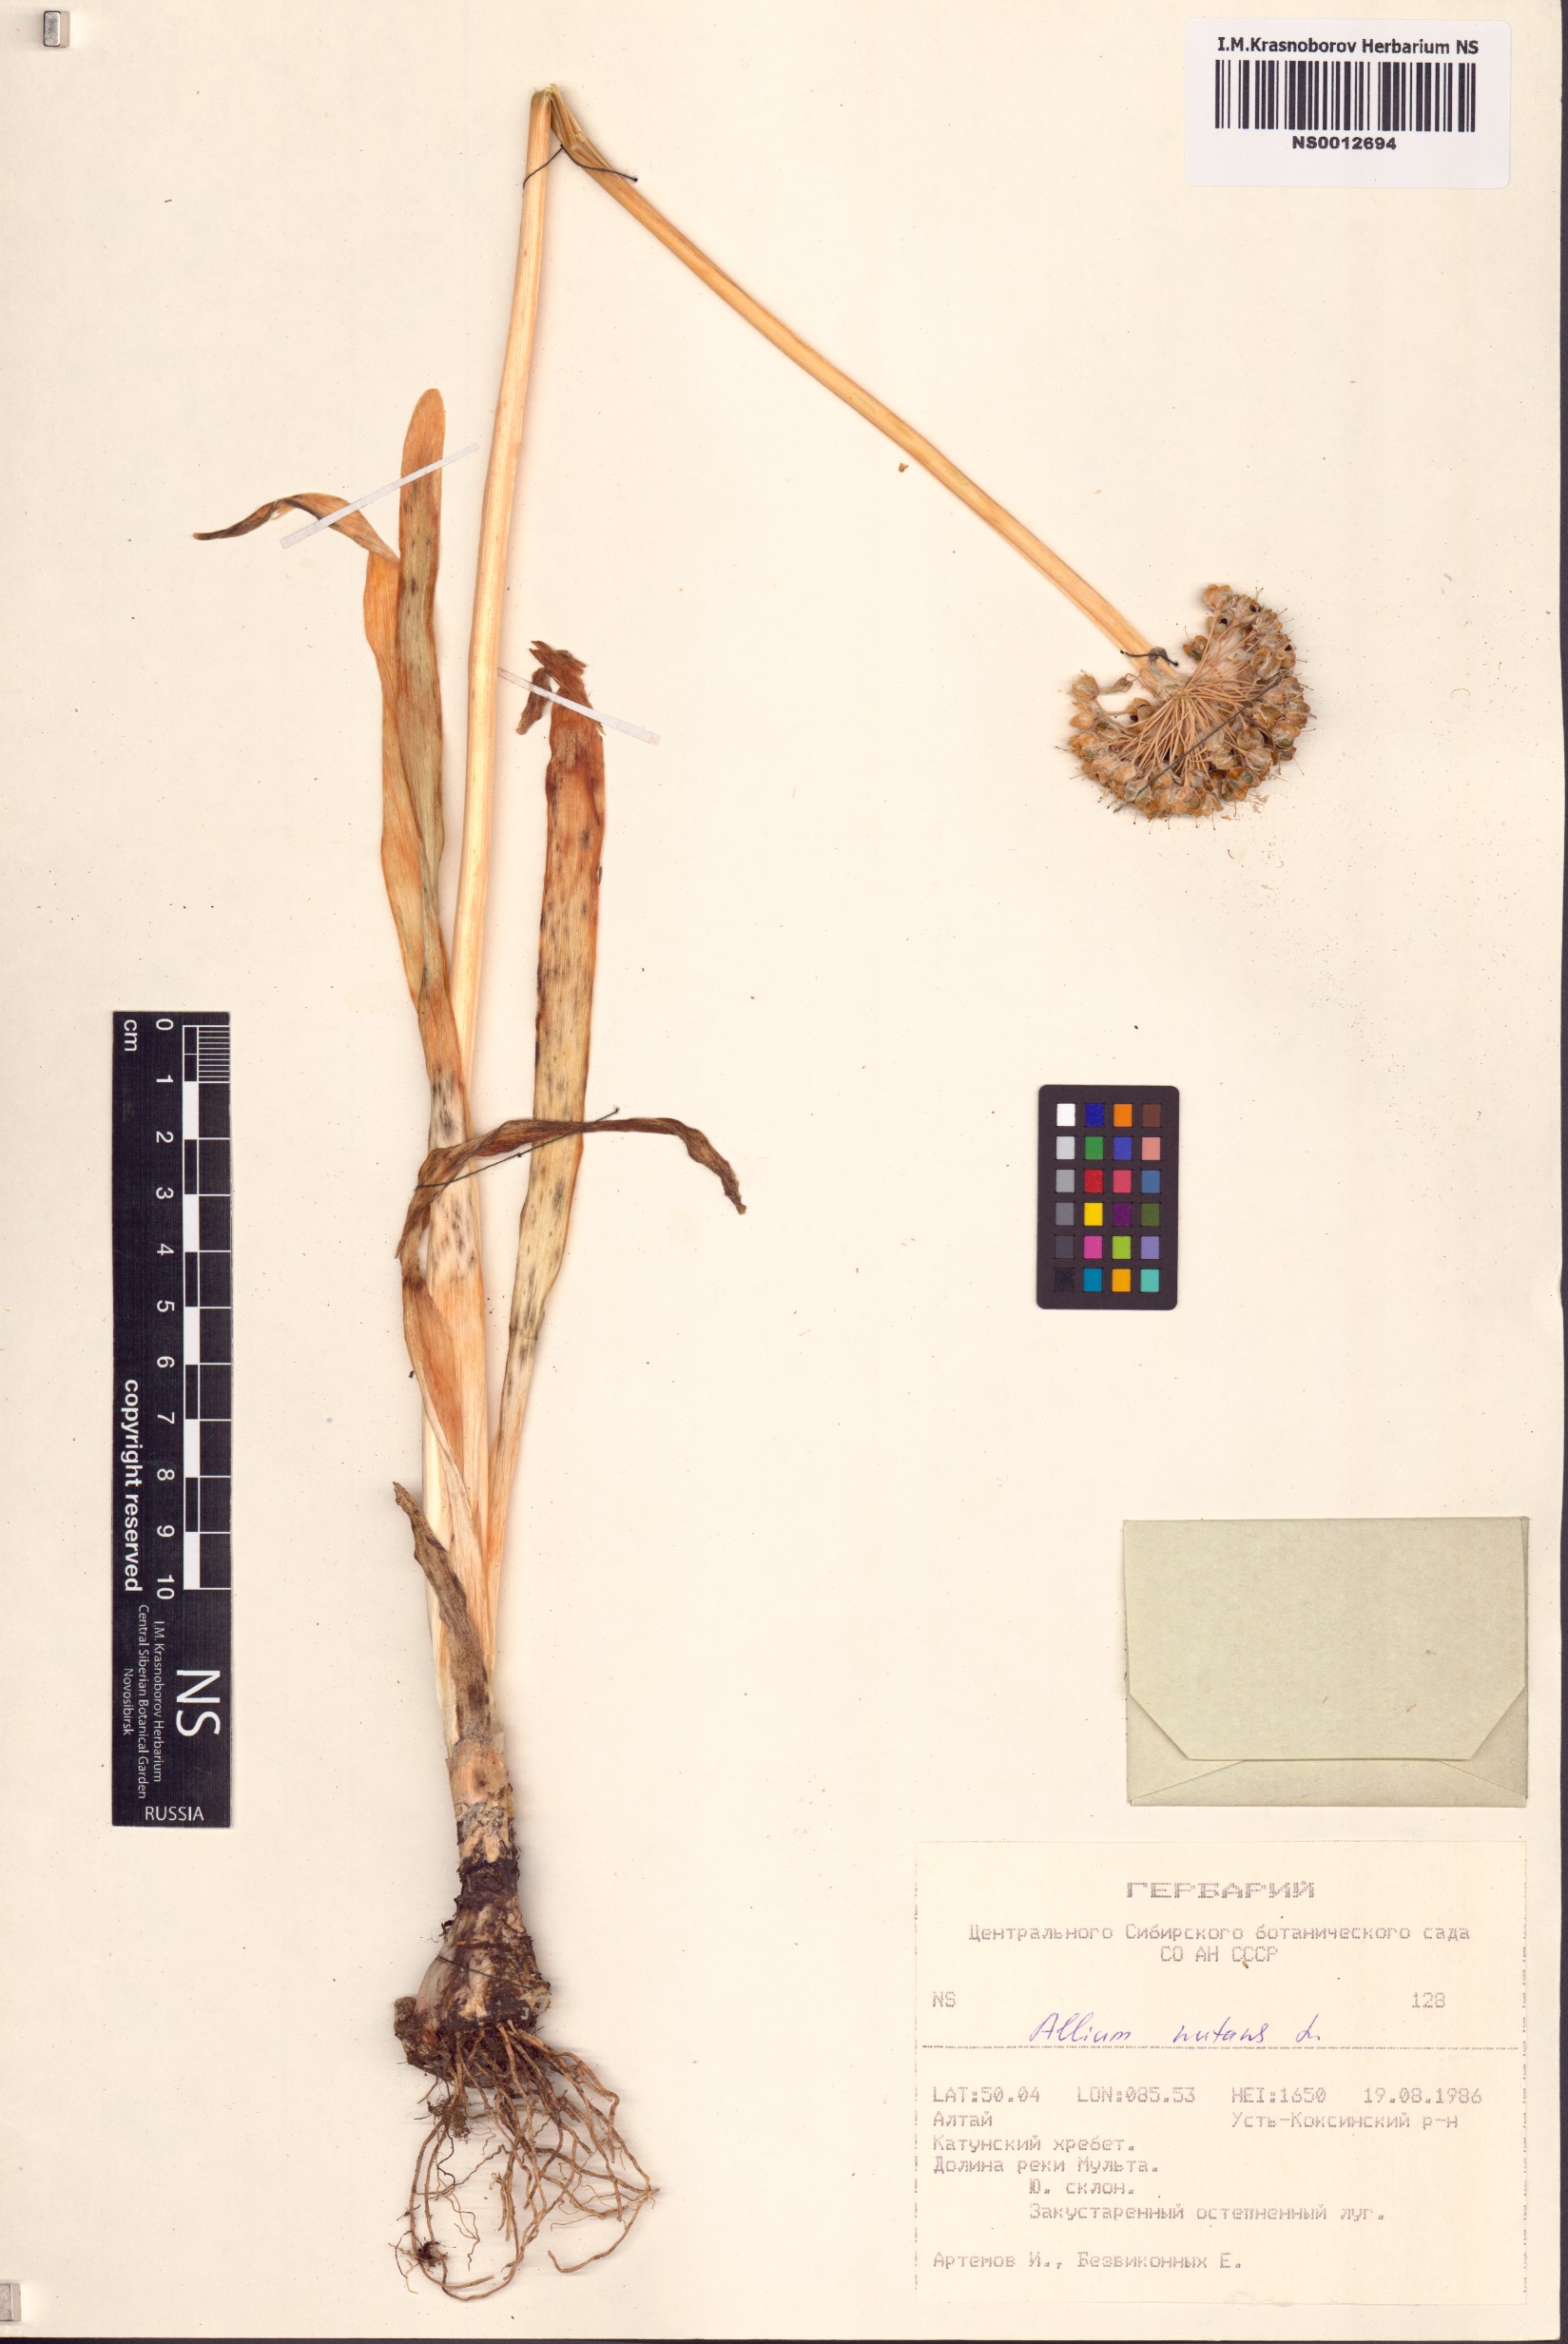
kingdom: Plantae
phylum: Tracheophyta
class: Liliopsida
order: Asparagales
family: Amaryllidaceae
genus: Allium
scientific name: Allium nutans
